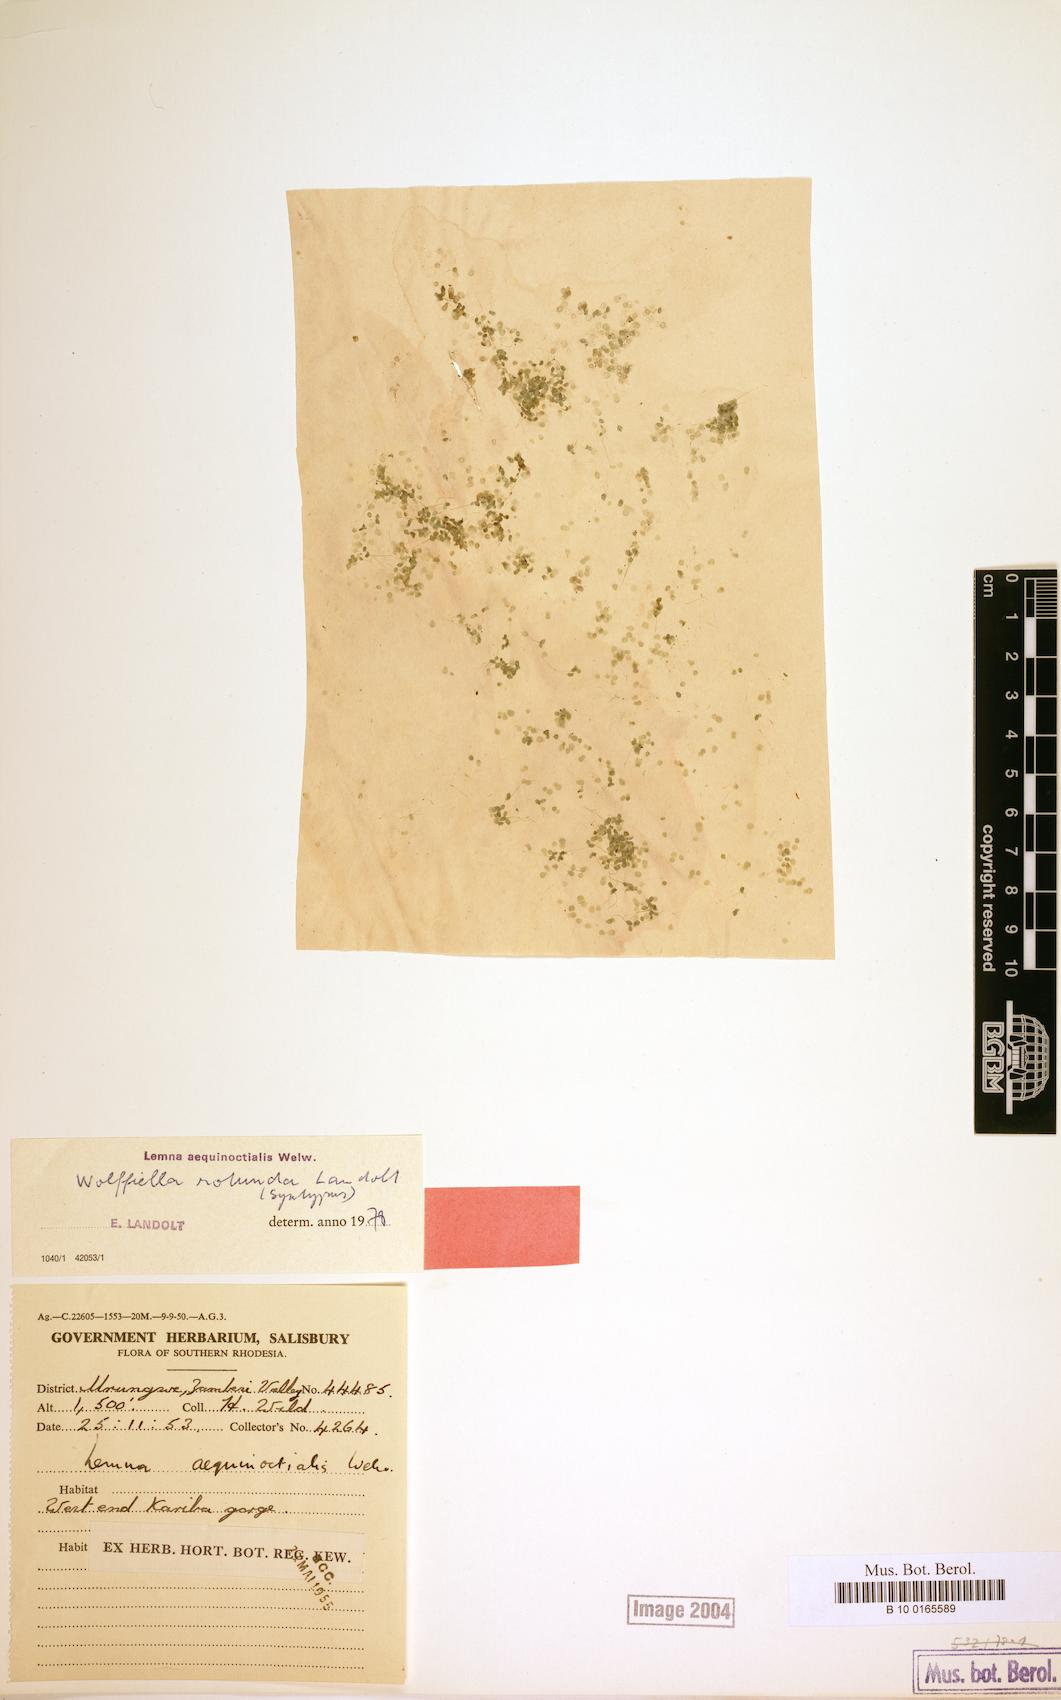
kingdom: Plantae
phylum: Tracheophyta
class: Liliopsida
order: Alismatales
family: Araceae
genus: Wolffiella
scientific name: Wolffiella rotunda
